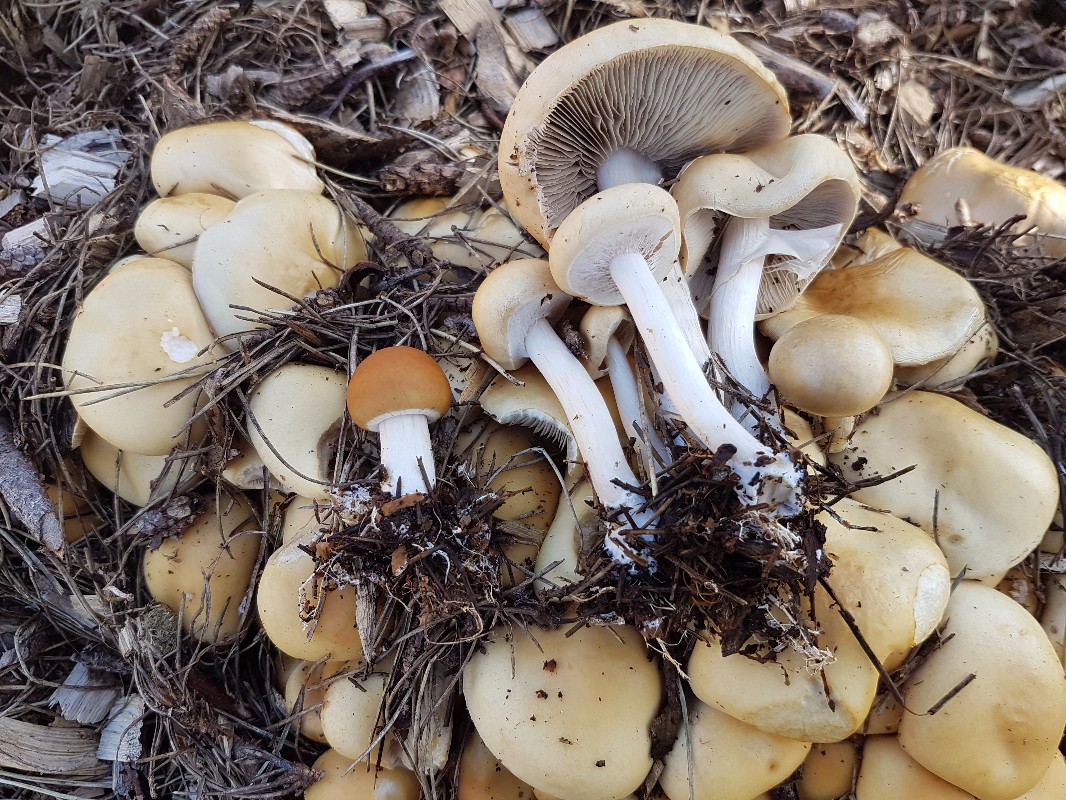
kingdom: Fungi
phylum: Basidiomycota
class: Agaricomycetes
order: Agaricales
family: Strophariaceae
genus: Agrocybe
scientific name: Agrocybe praecox
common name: tidlig agerhat
